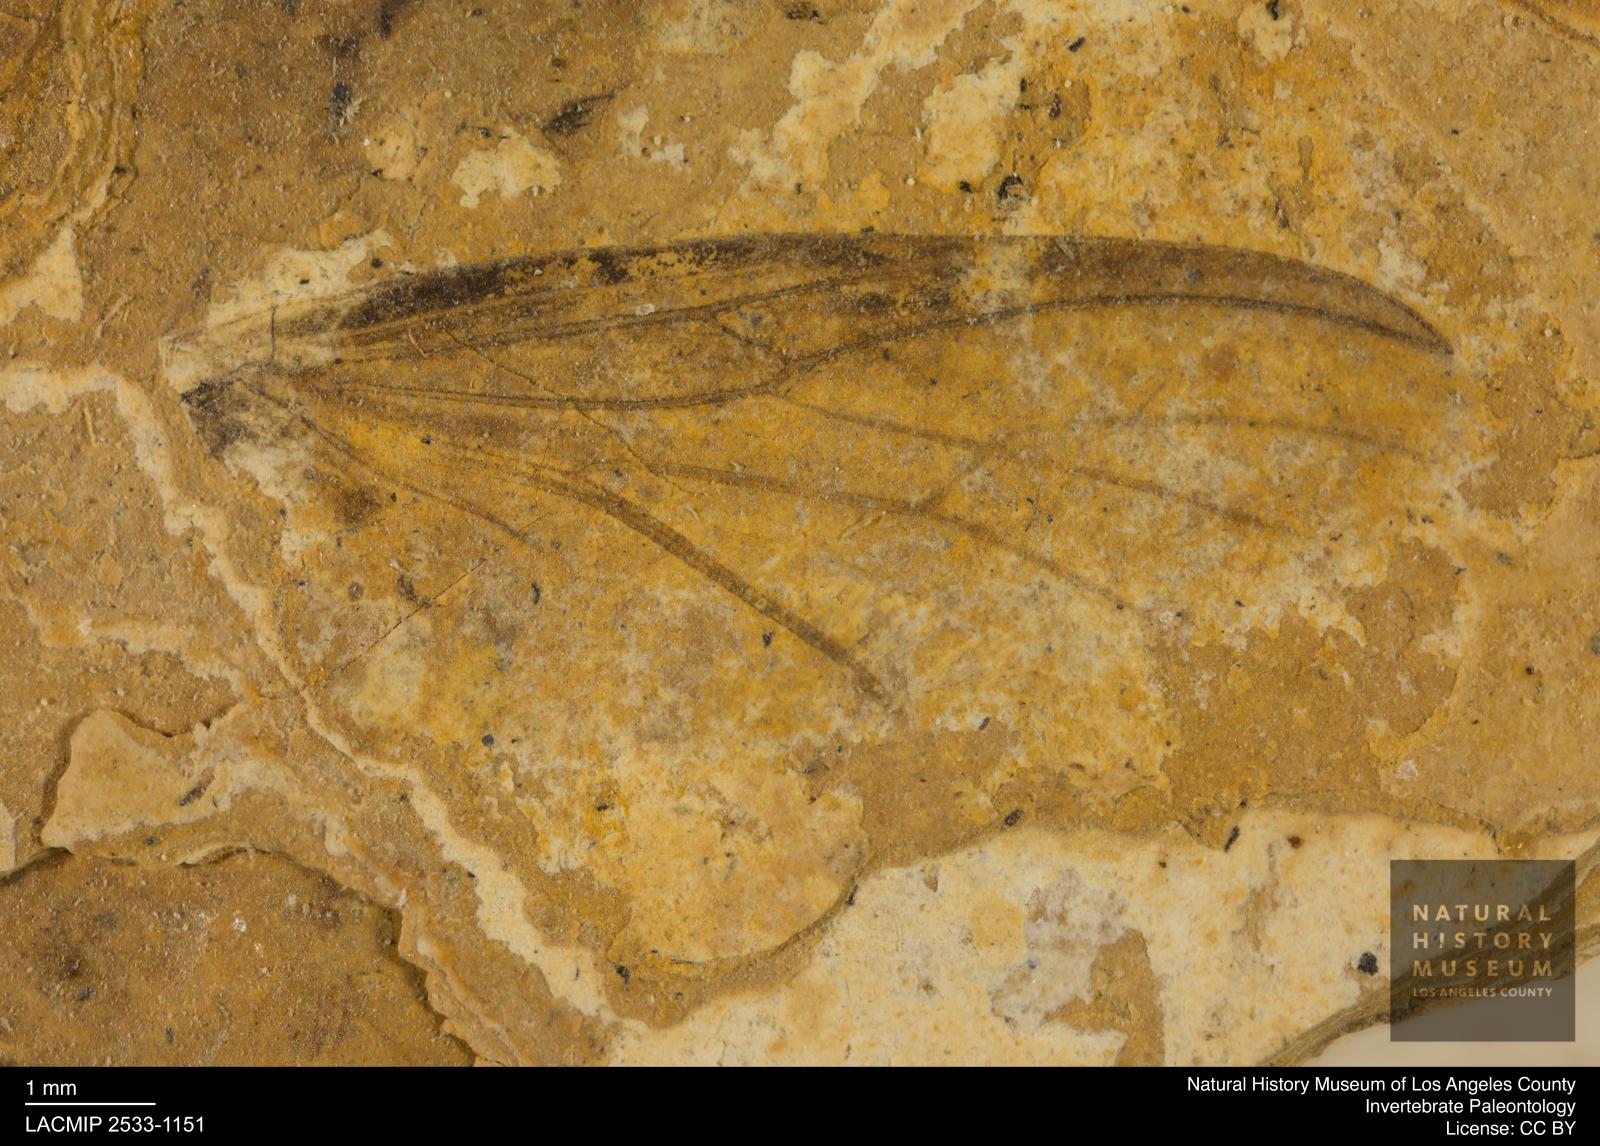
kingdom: Animalia
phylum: Arthropoda
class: Insecta
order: Diptera
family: Bibionidae
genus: Bibio
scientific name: Bibio mimas
